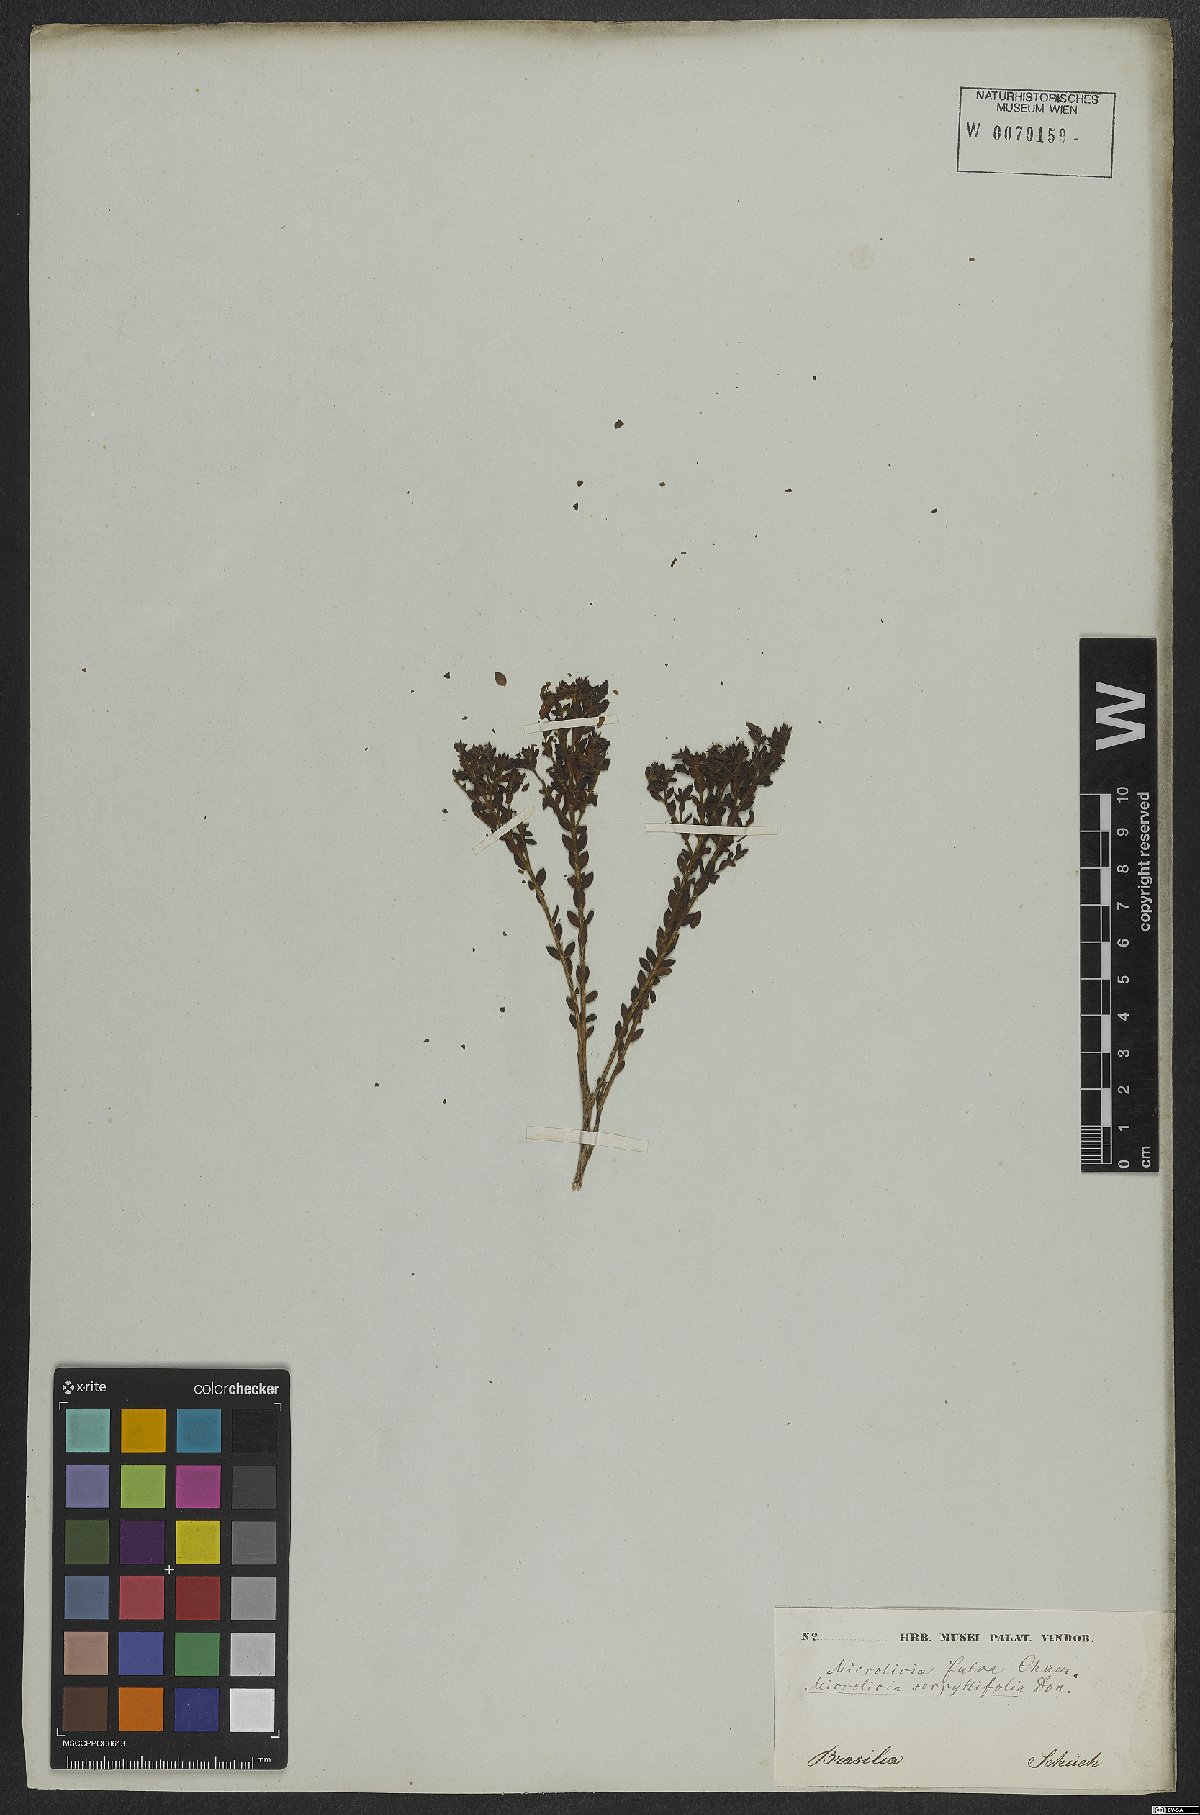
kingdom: Plantae
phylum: Tracheophyta
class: Magnoliopsida
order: Myrtales
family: Melastomataceae
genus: Microlicia
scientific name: Microlicia fulva
